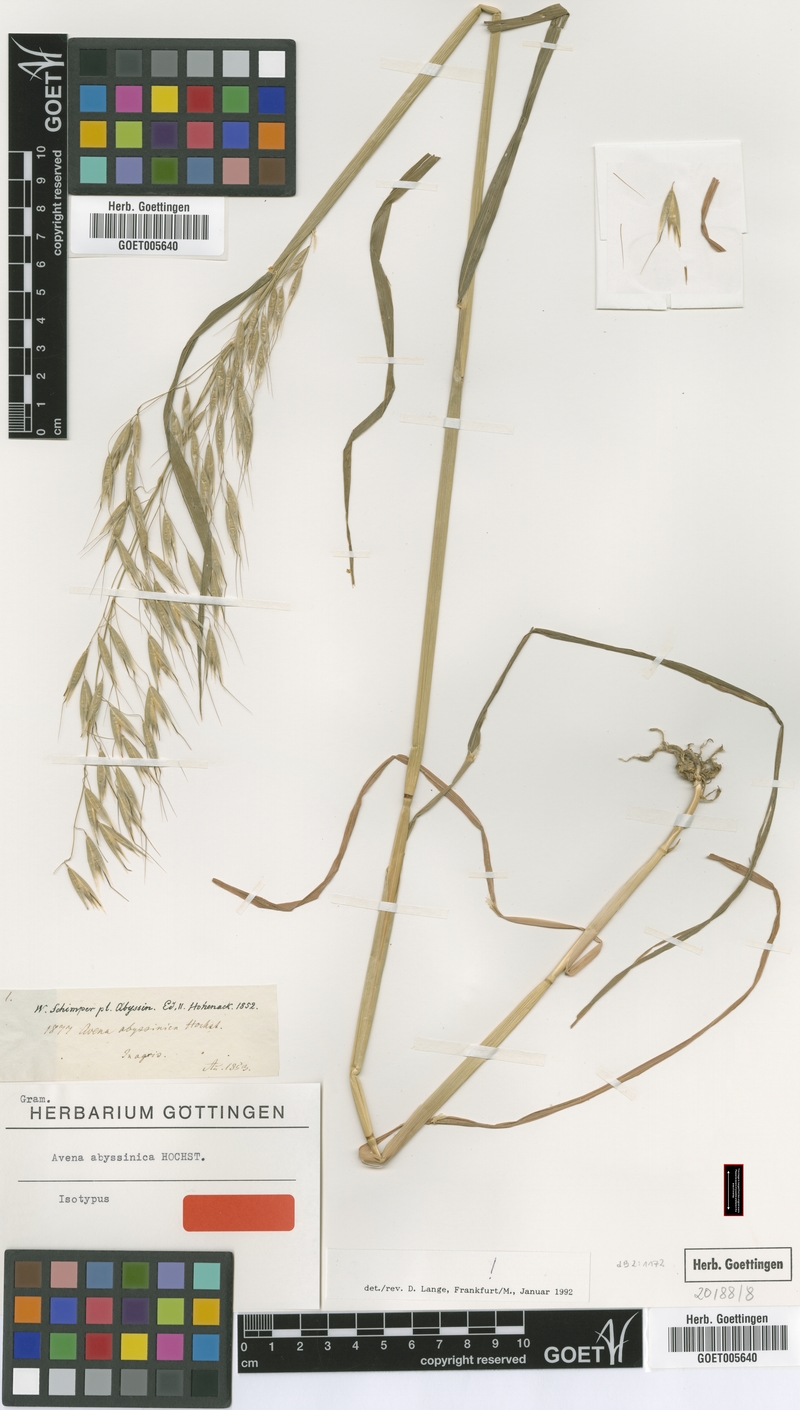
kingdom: Plantae
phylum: Tracheophyta
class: Liliopsida
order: Poales
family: Poaceae
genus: Avena
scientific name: Avena abyssinica
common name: Ethiopian oat
